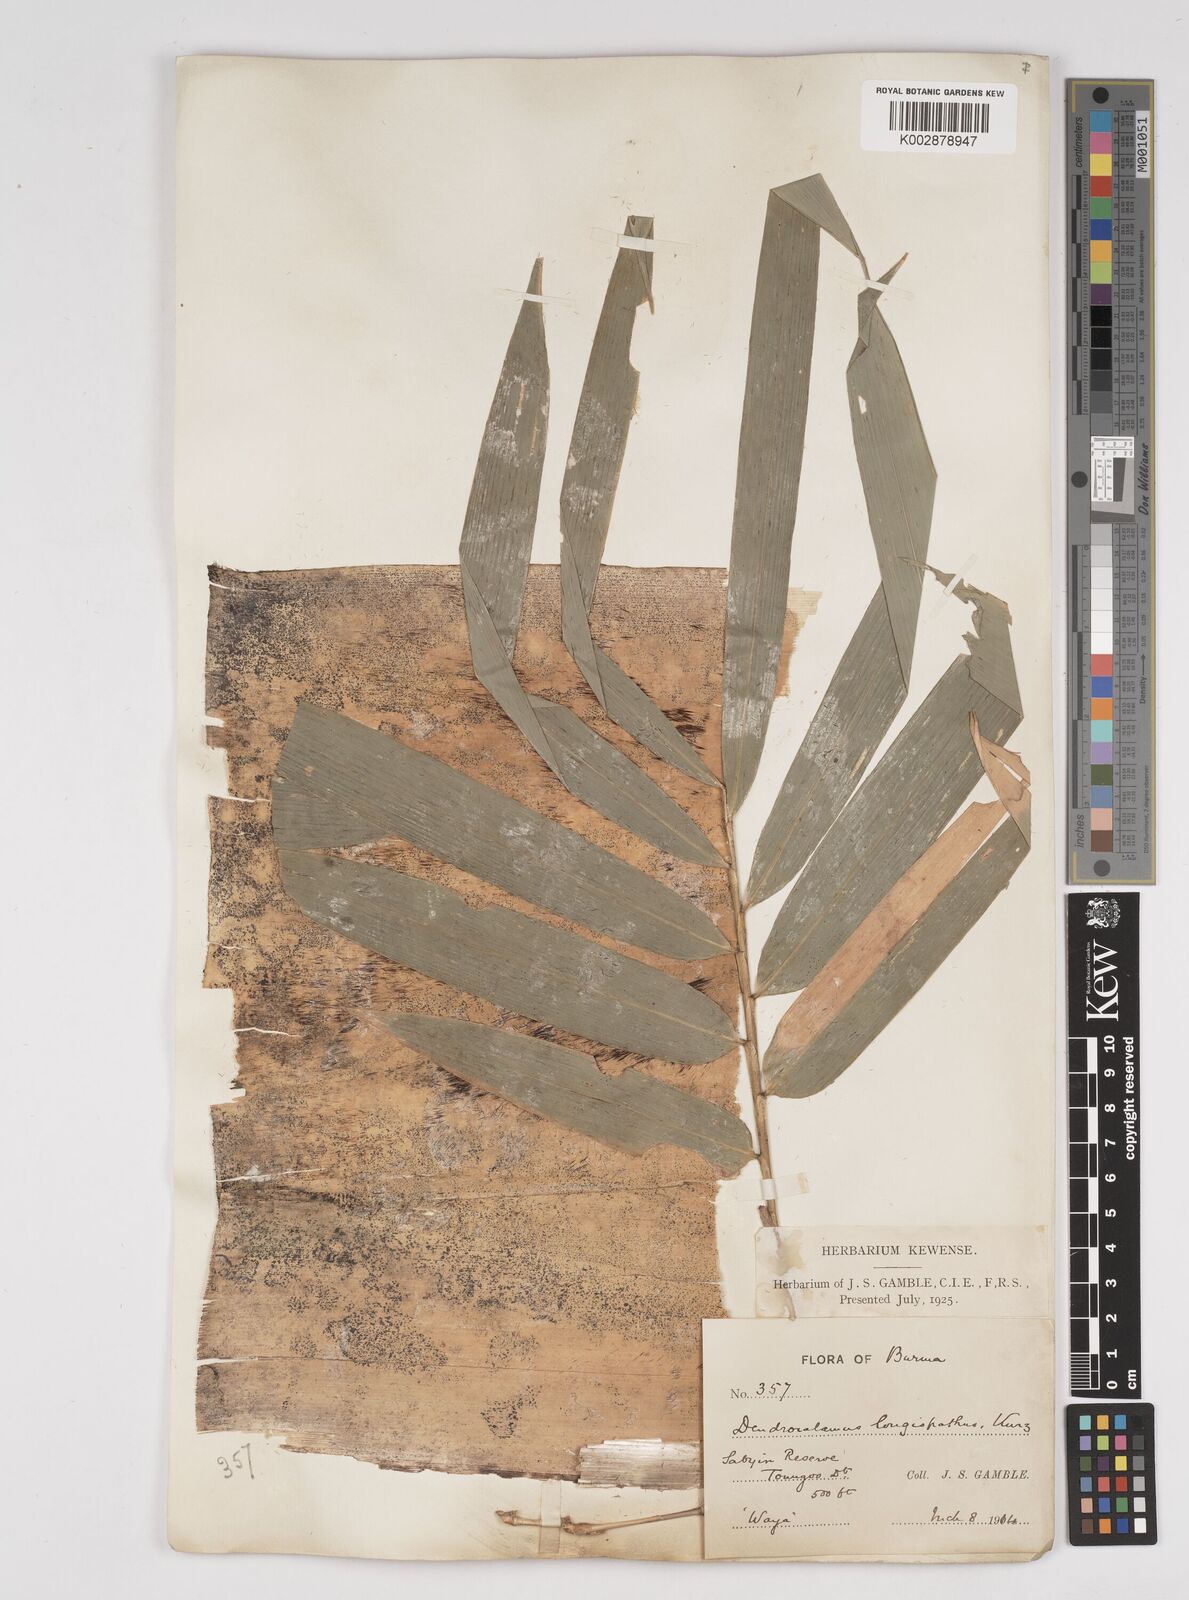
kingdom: Plantae
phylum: Tracheophyta
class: Liliopsida
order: Poales
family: Poaceae
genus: Dendrocalamus
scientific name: Dendrocalamus longispathus
